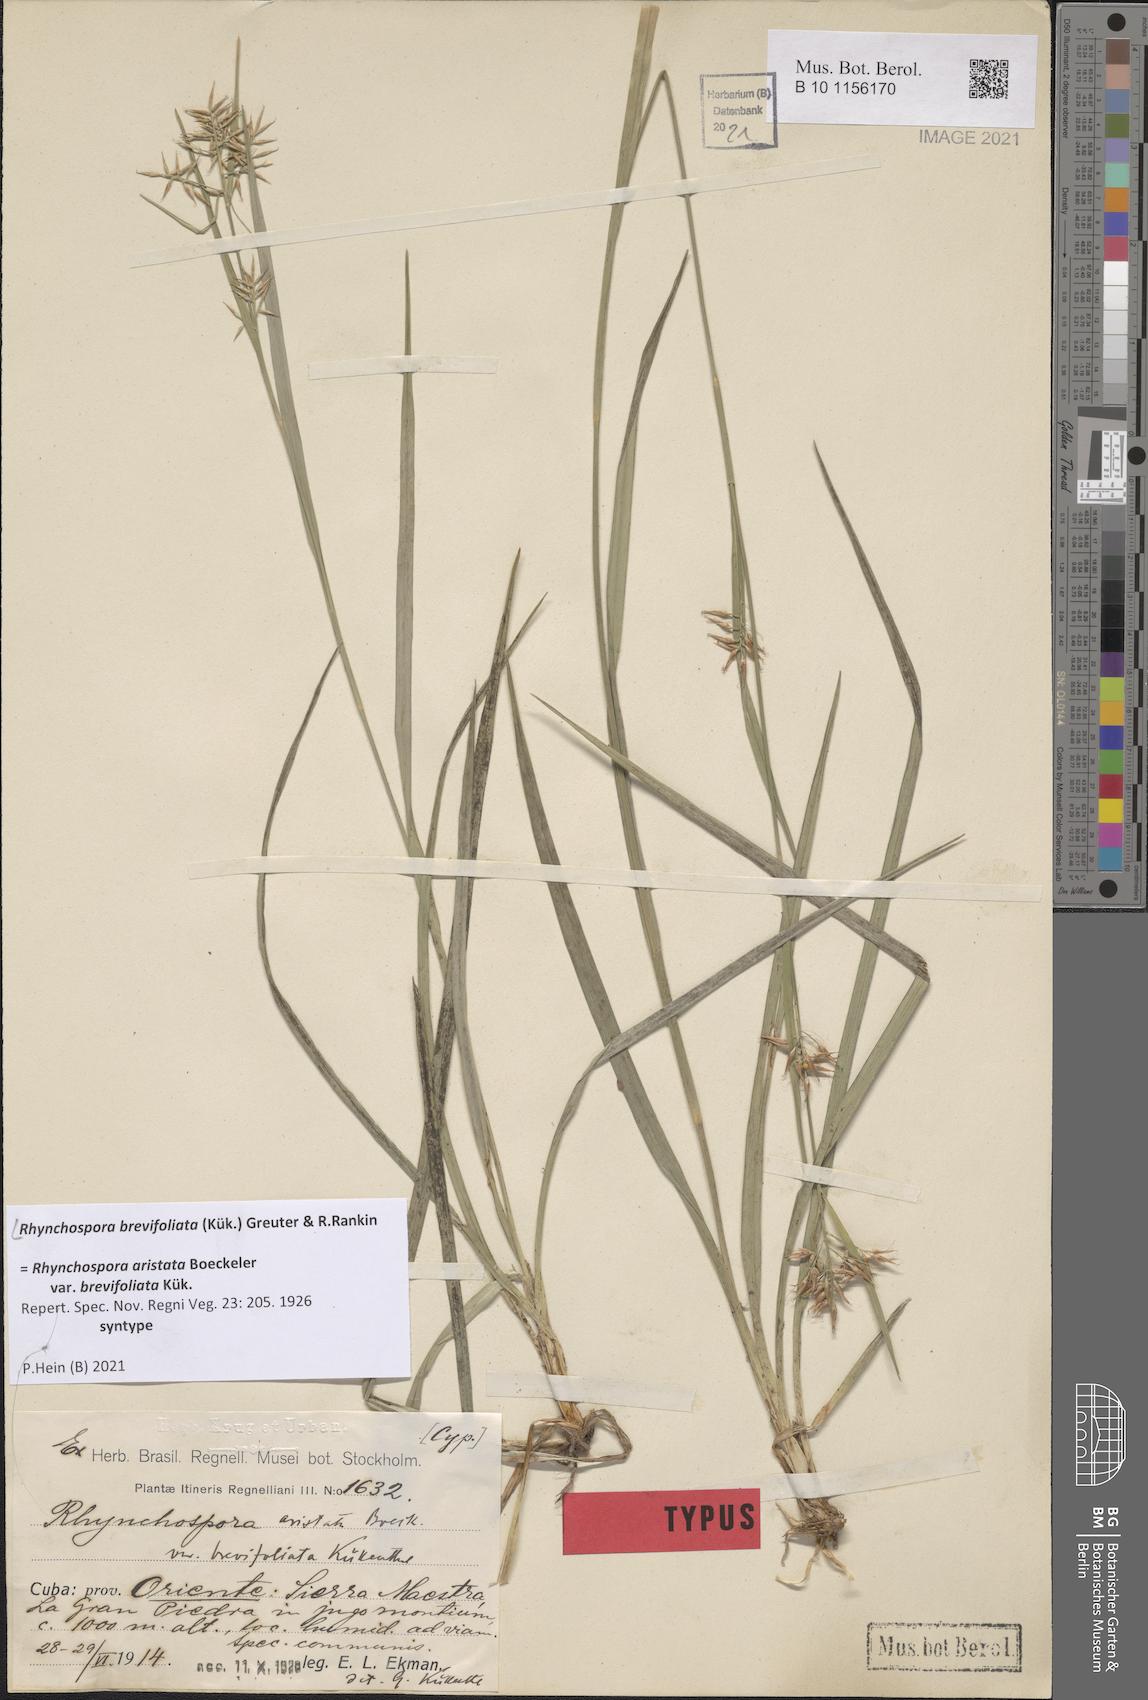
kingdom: Plantae
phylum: Tracheophyta
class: Liliopsida
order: Poales
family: Cyperaceae
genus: Rhynchospora
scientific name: Rhynchospora brevifoliata
